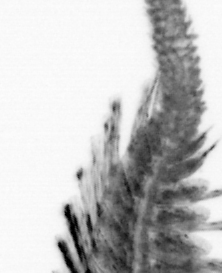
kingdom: Animalia
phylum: Annelida
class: Polychaeta
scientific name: Polychaeta
